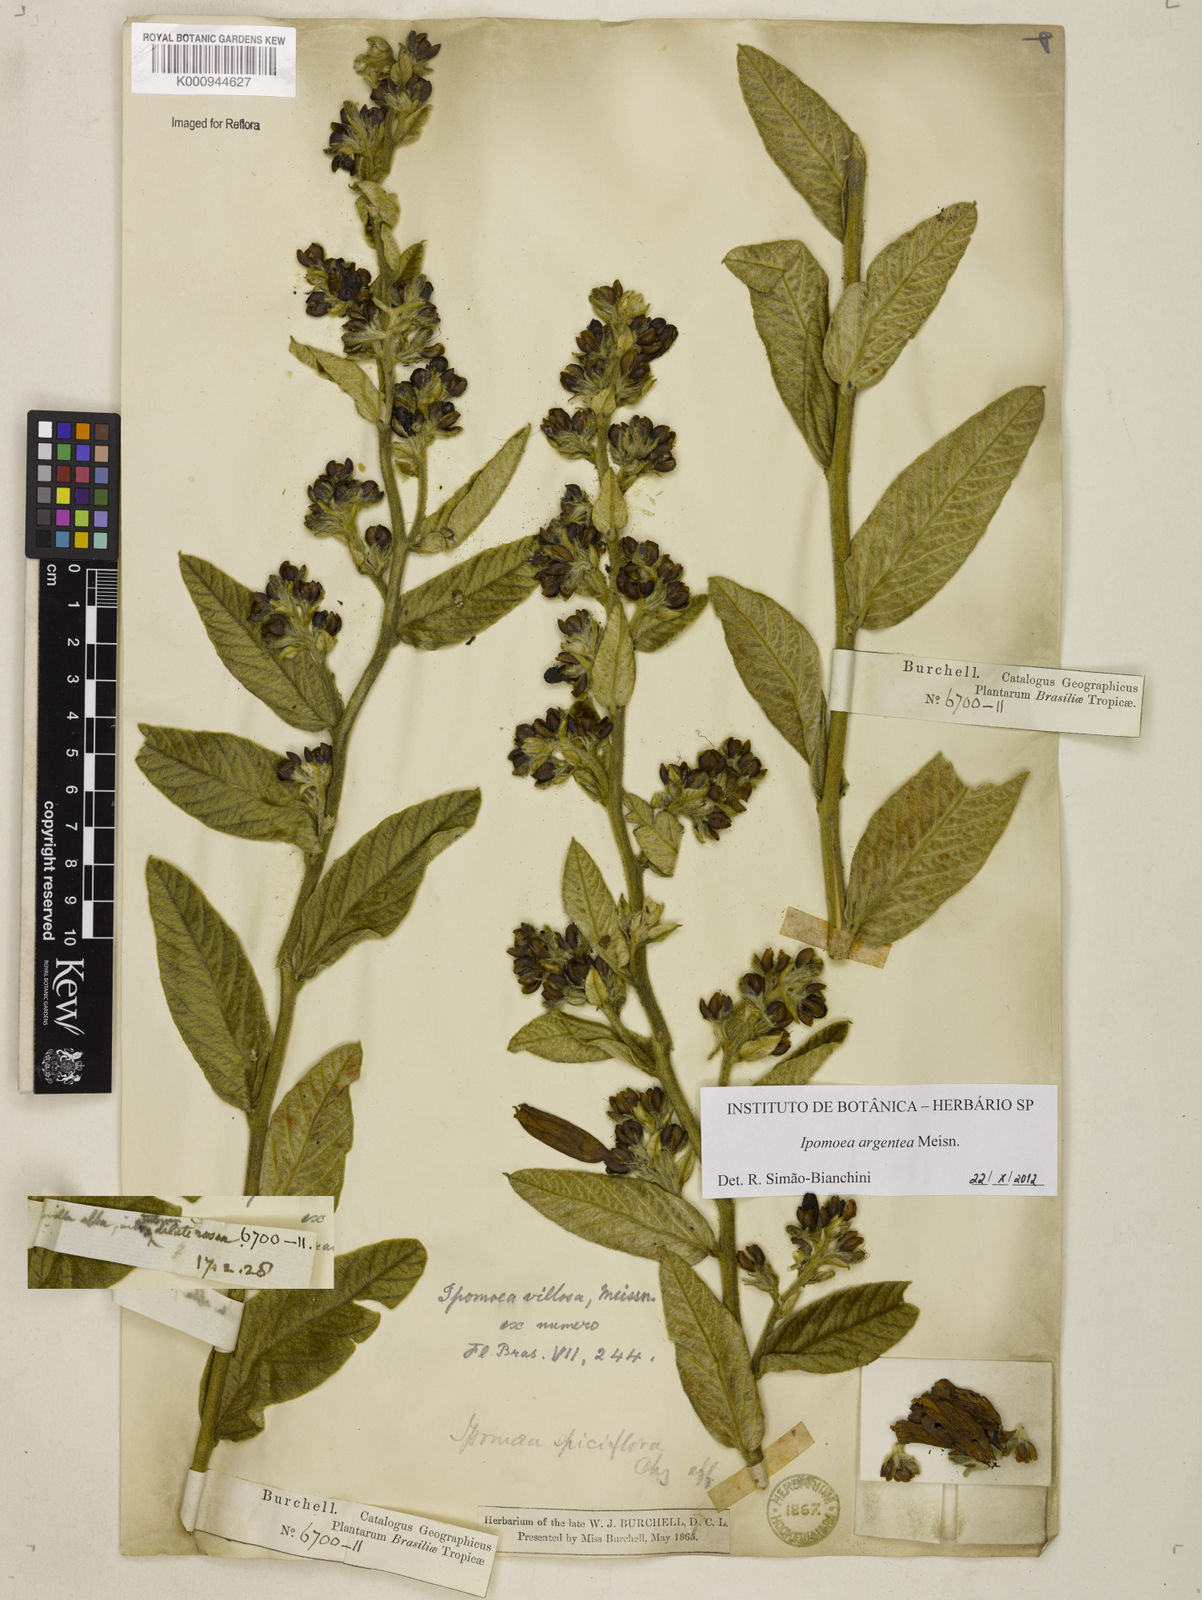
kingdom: Plantae
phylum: Tracheophyta
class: Magnoliopsida
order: Solanales
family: Convolvulaceae
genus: Ipomoea
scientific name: Ipomoea argentea
